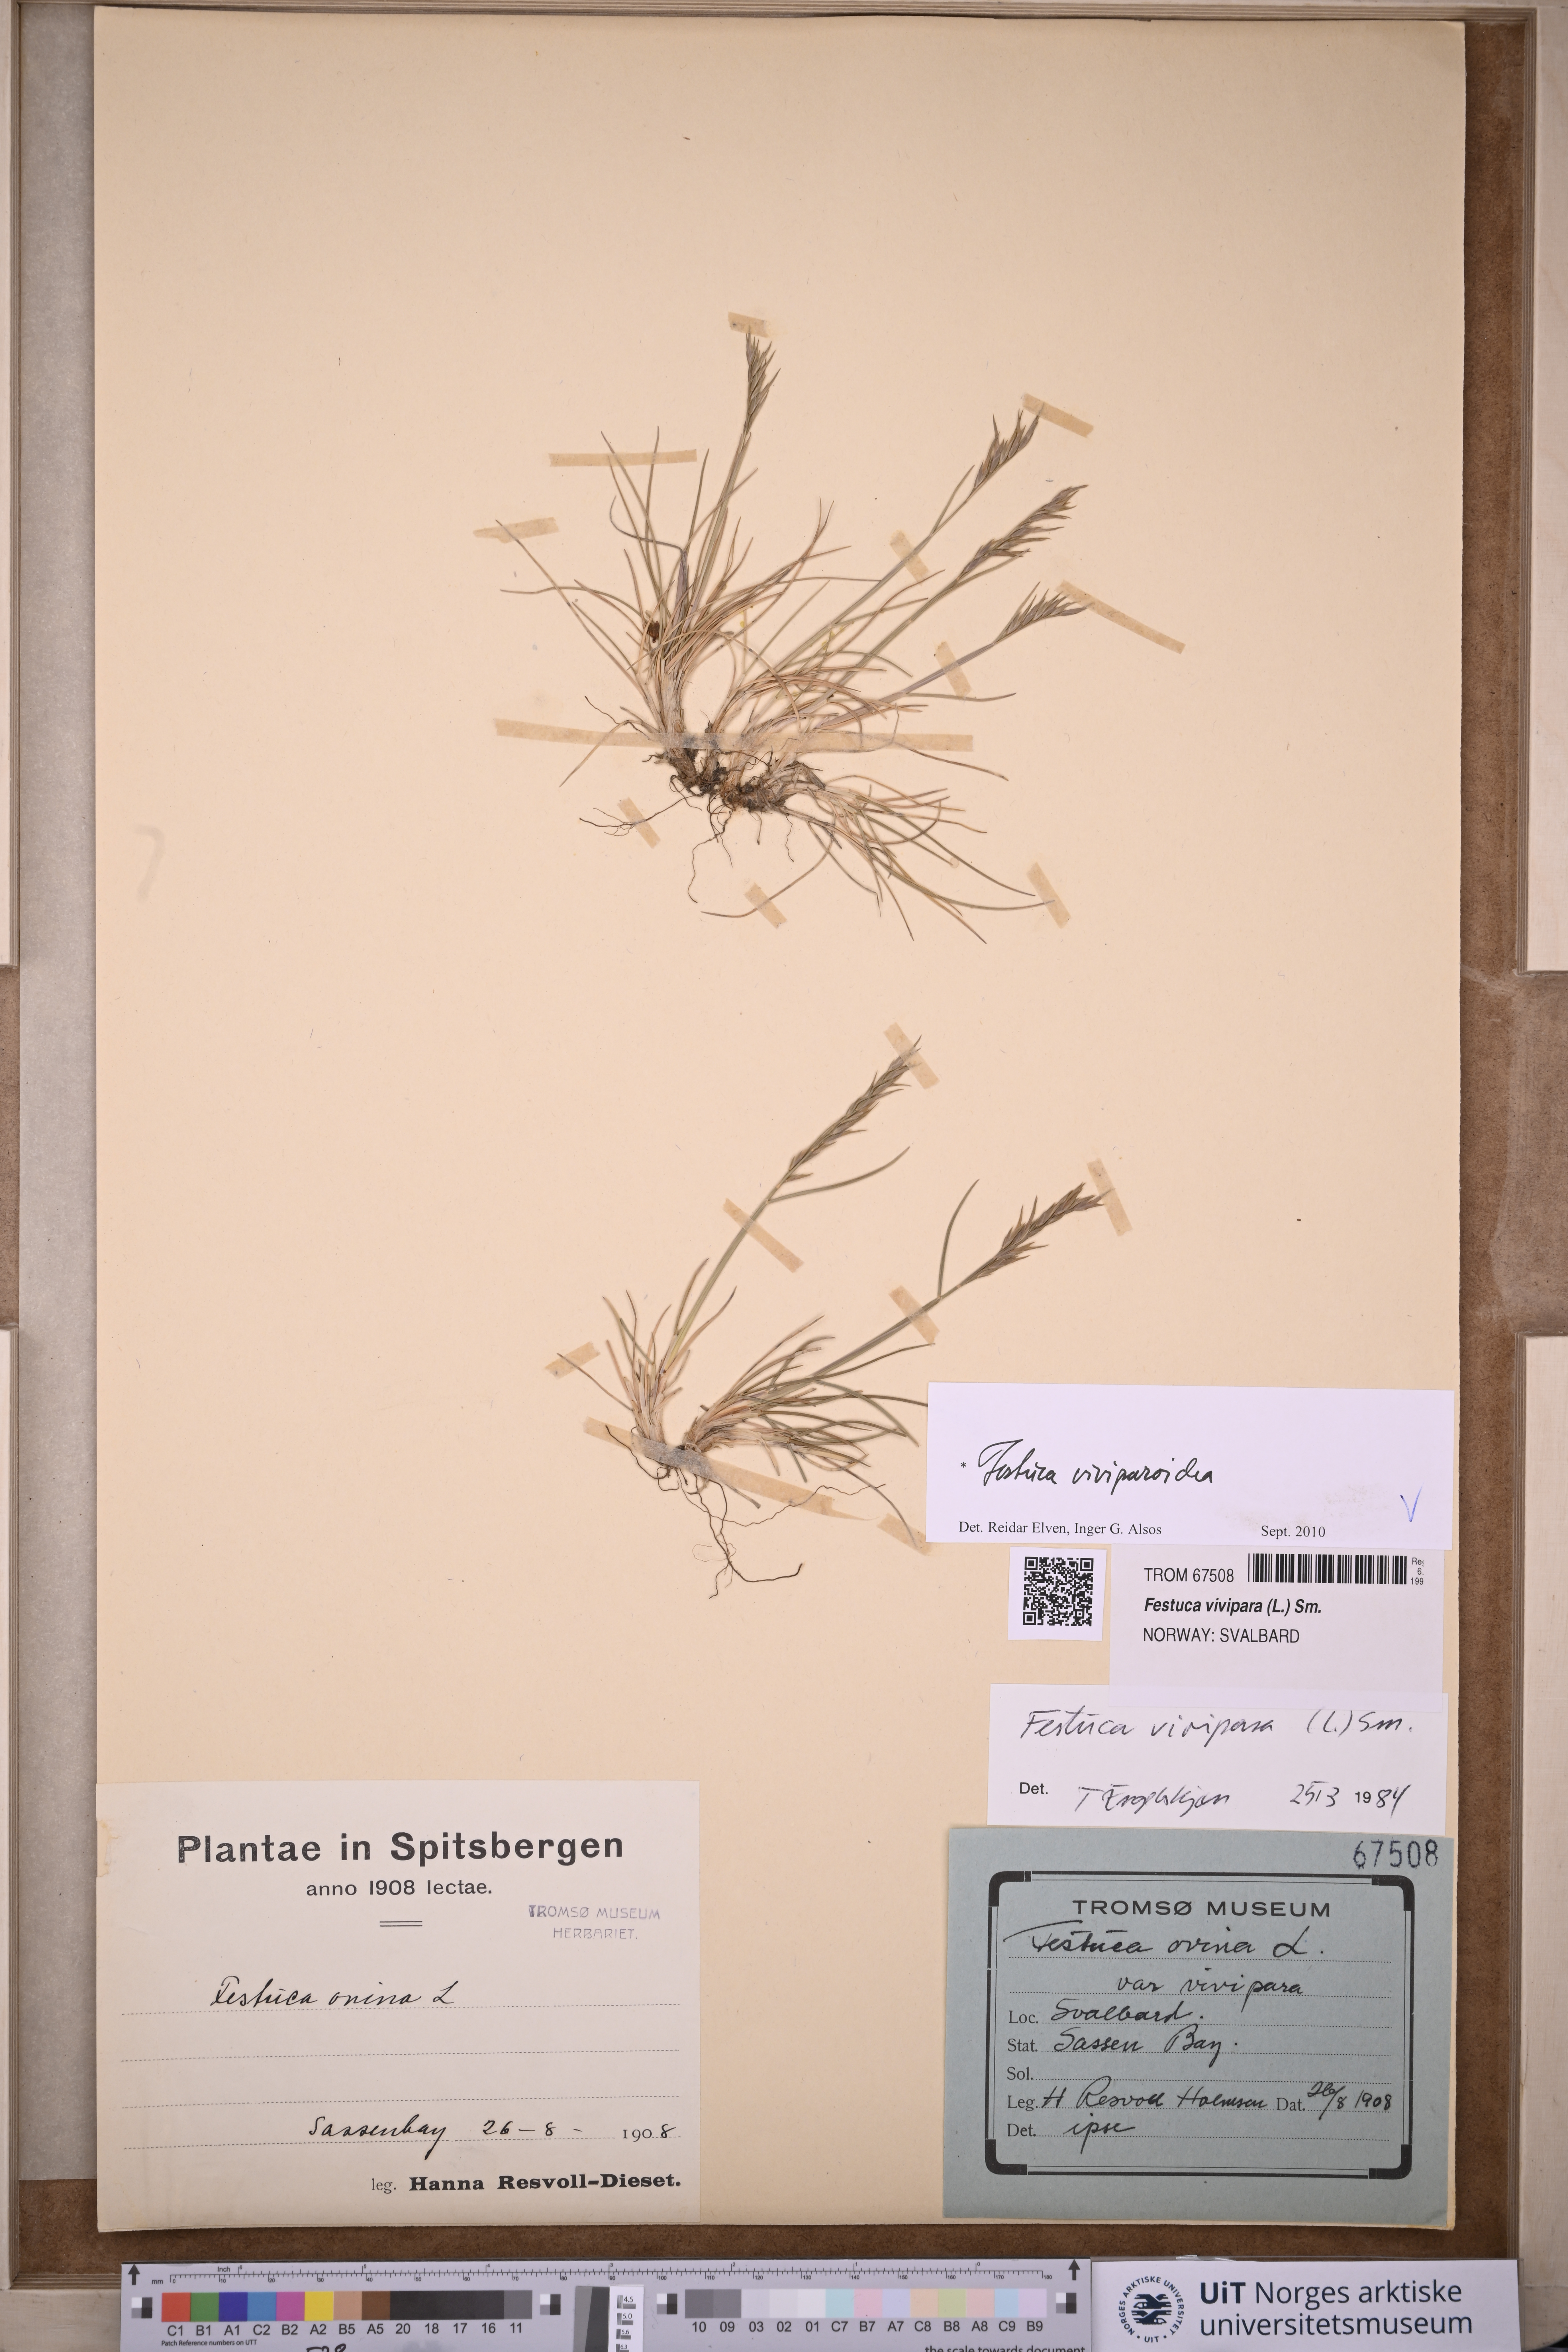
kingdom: Plantae
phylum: Tracheophyta
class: Liliopsida
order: Poales
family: Poaceae
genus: Festuca
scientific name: Festuca viviparoidea
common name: Northern fescue
